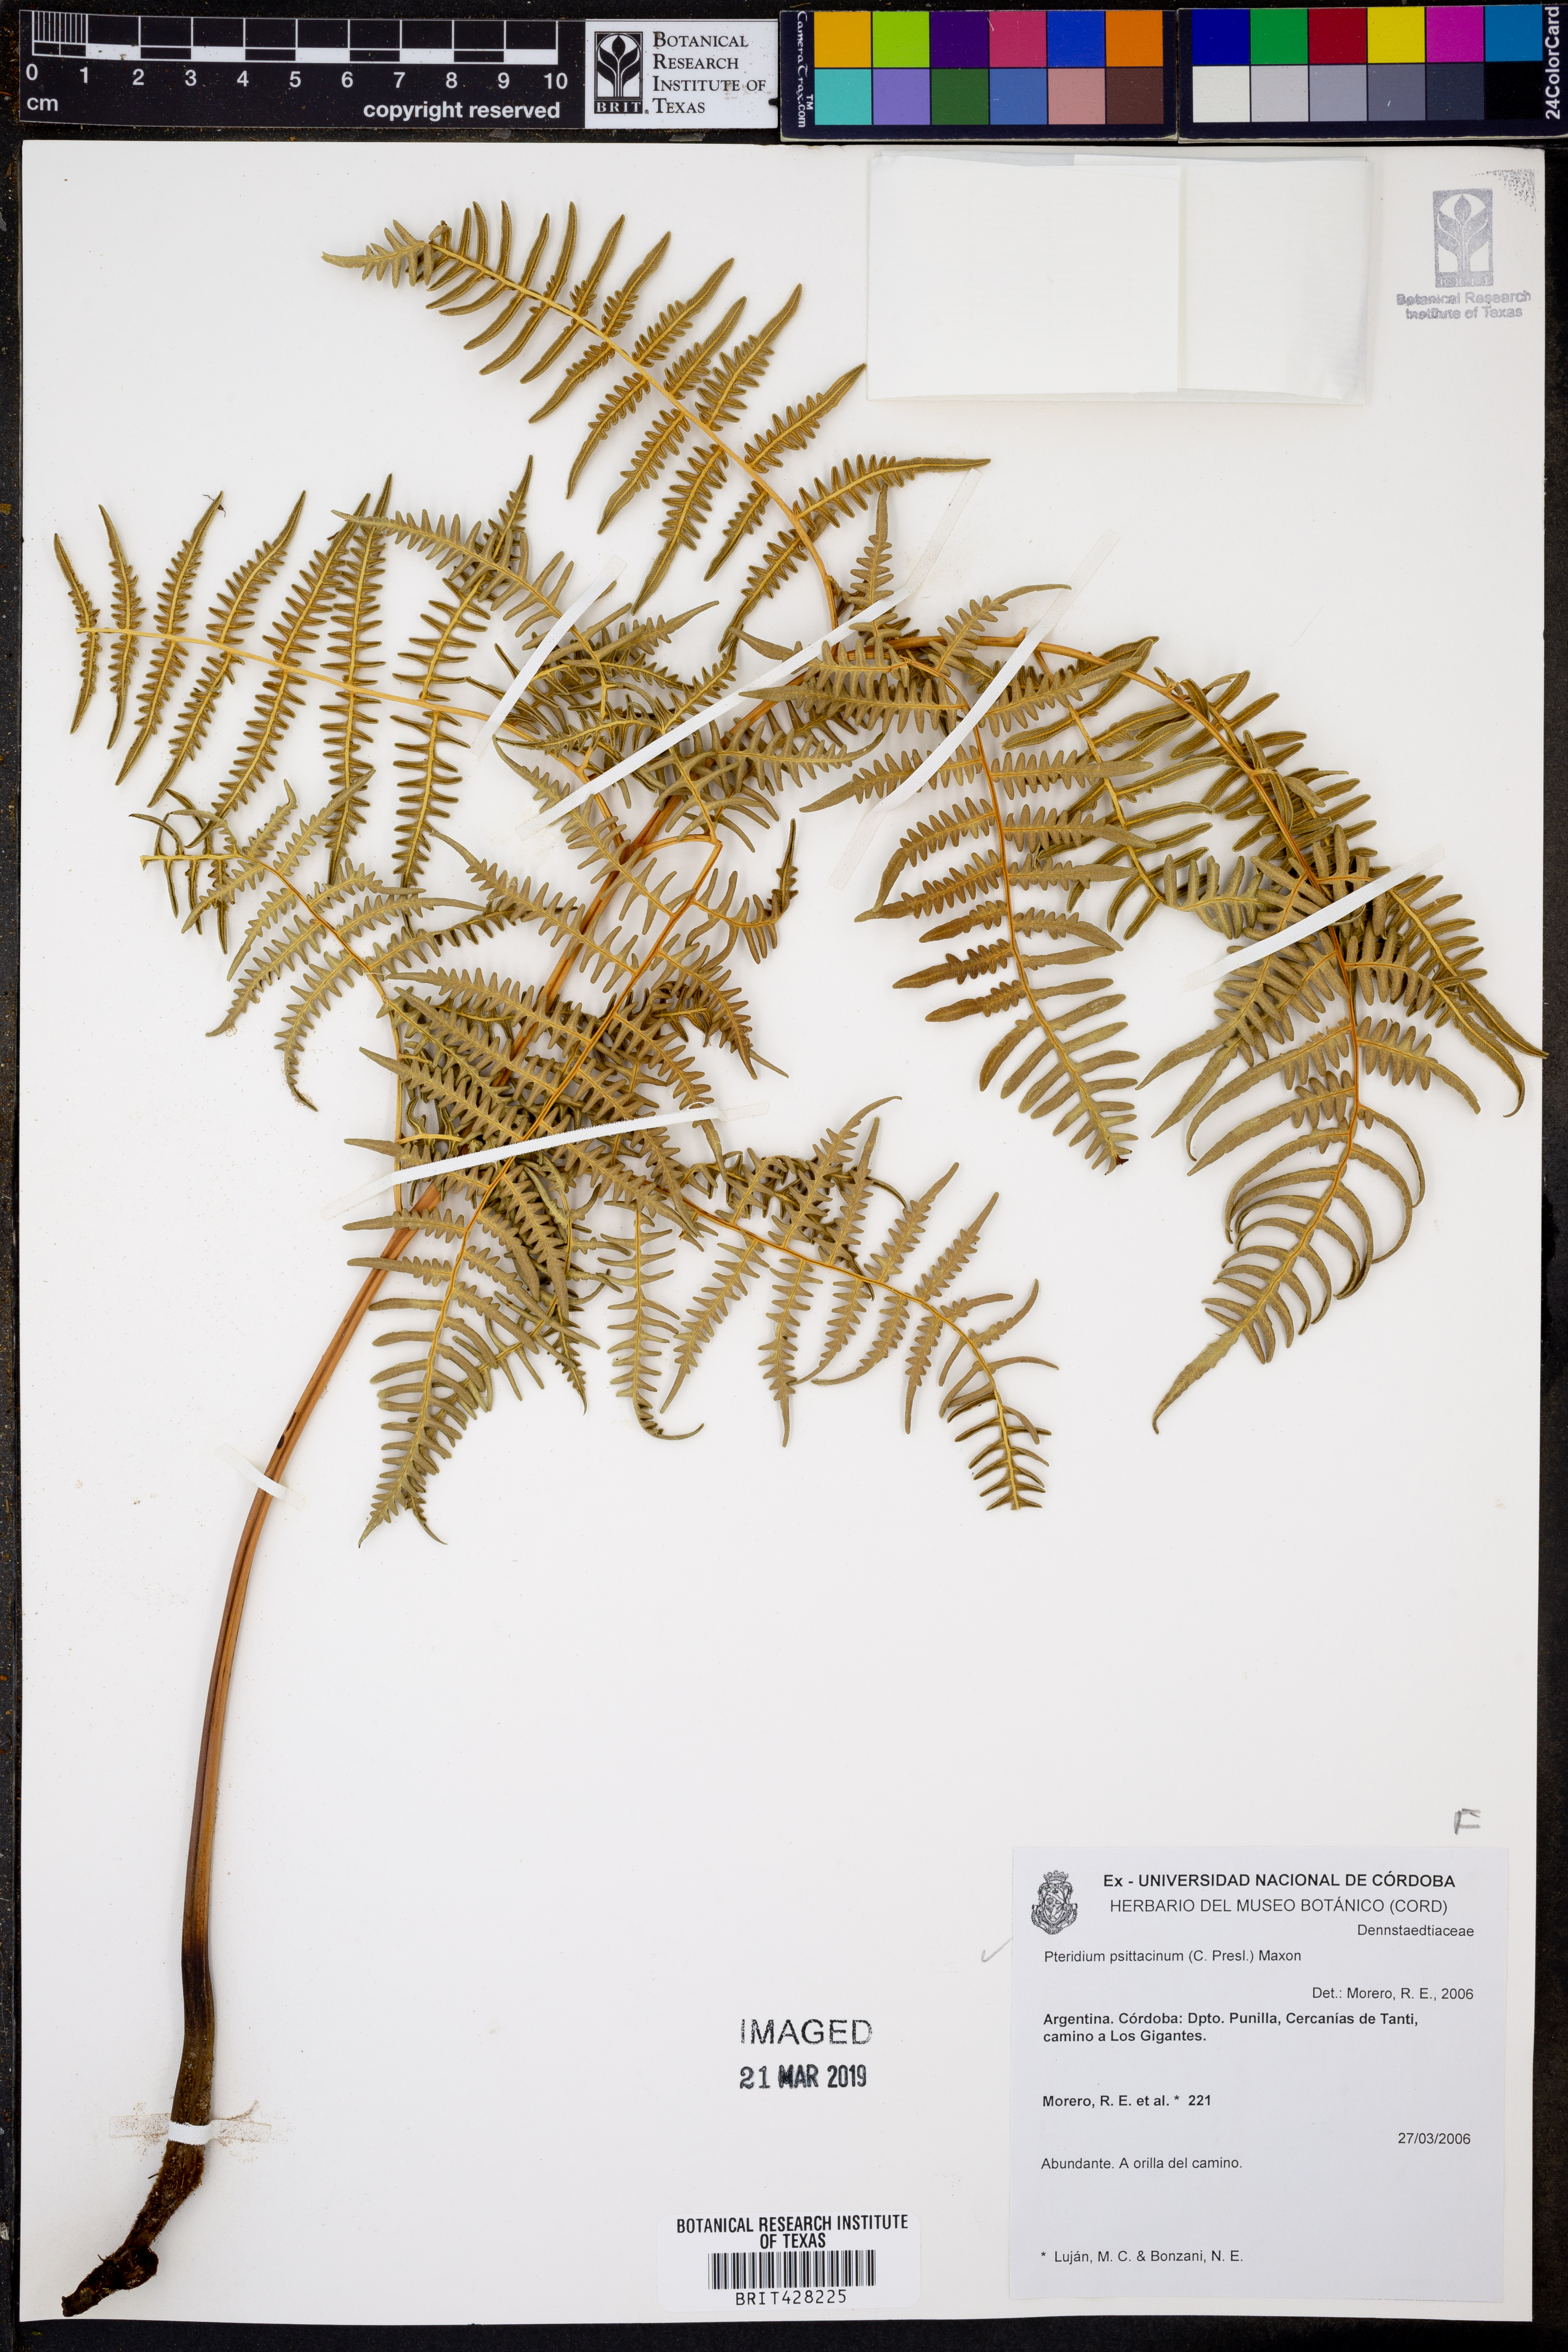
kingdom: Plantae
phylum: Tracheophyta
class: Polypodiopsida
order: Polypodiales
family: Dennstaedtiaceae
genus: Pteridium
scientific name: Pteridium esculentum
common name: Bracken fern
